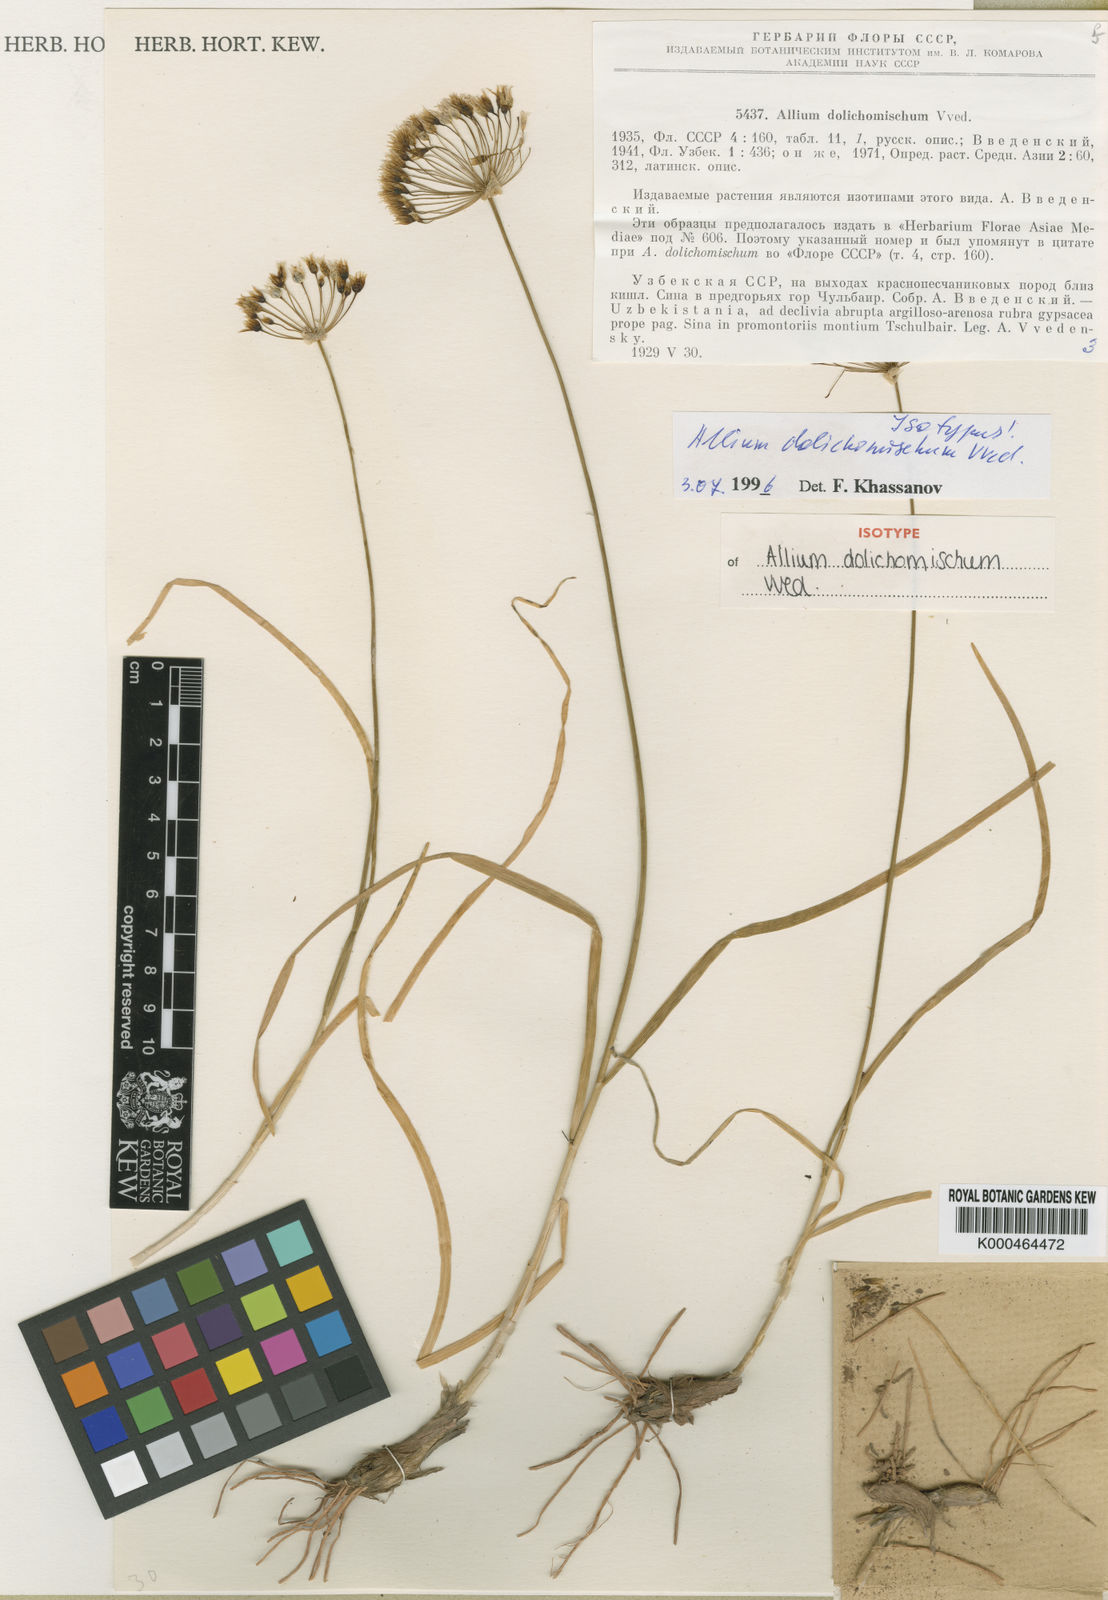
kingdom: Plantae
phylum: Tracheophyta
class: Liliopsida
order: Asparagales
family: Amaryllidaceae
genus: Allium
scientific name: Allium dolichomischum
